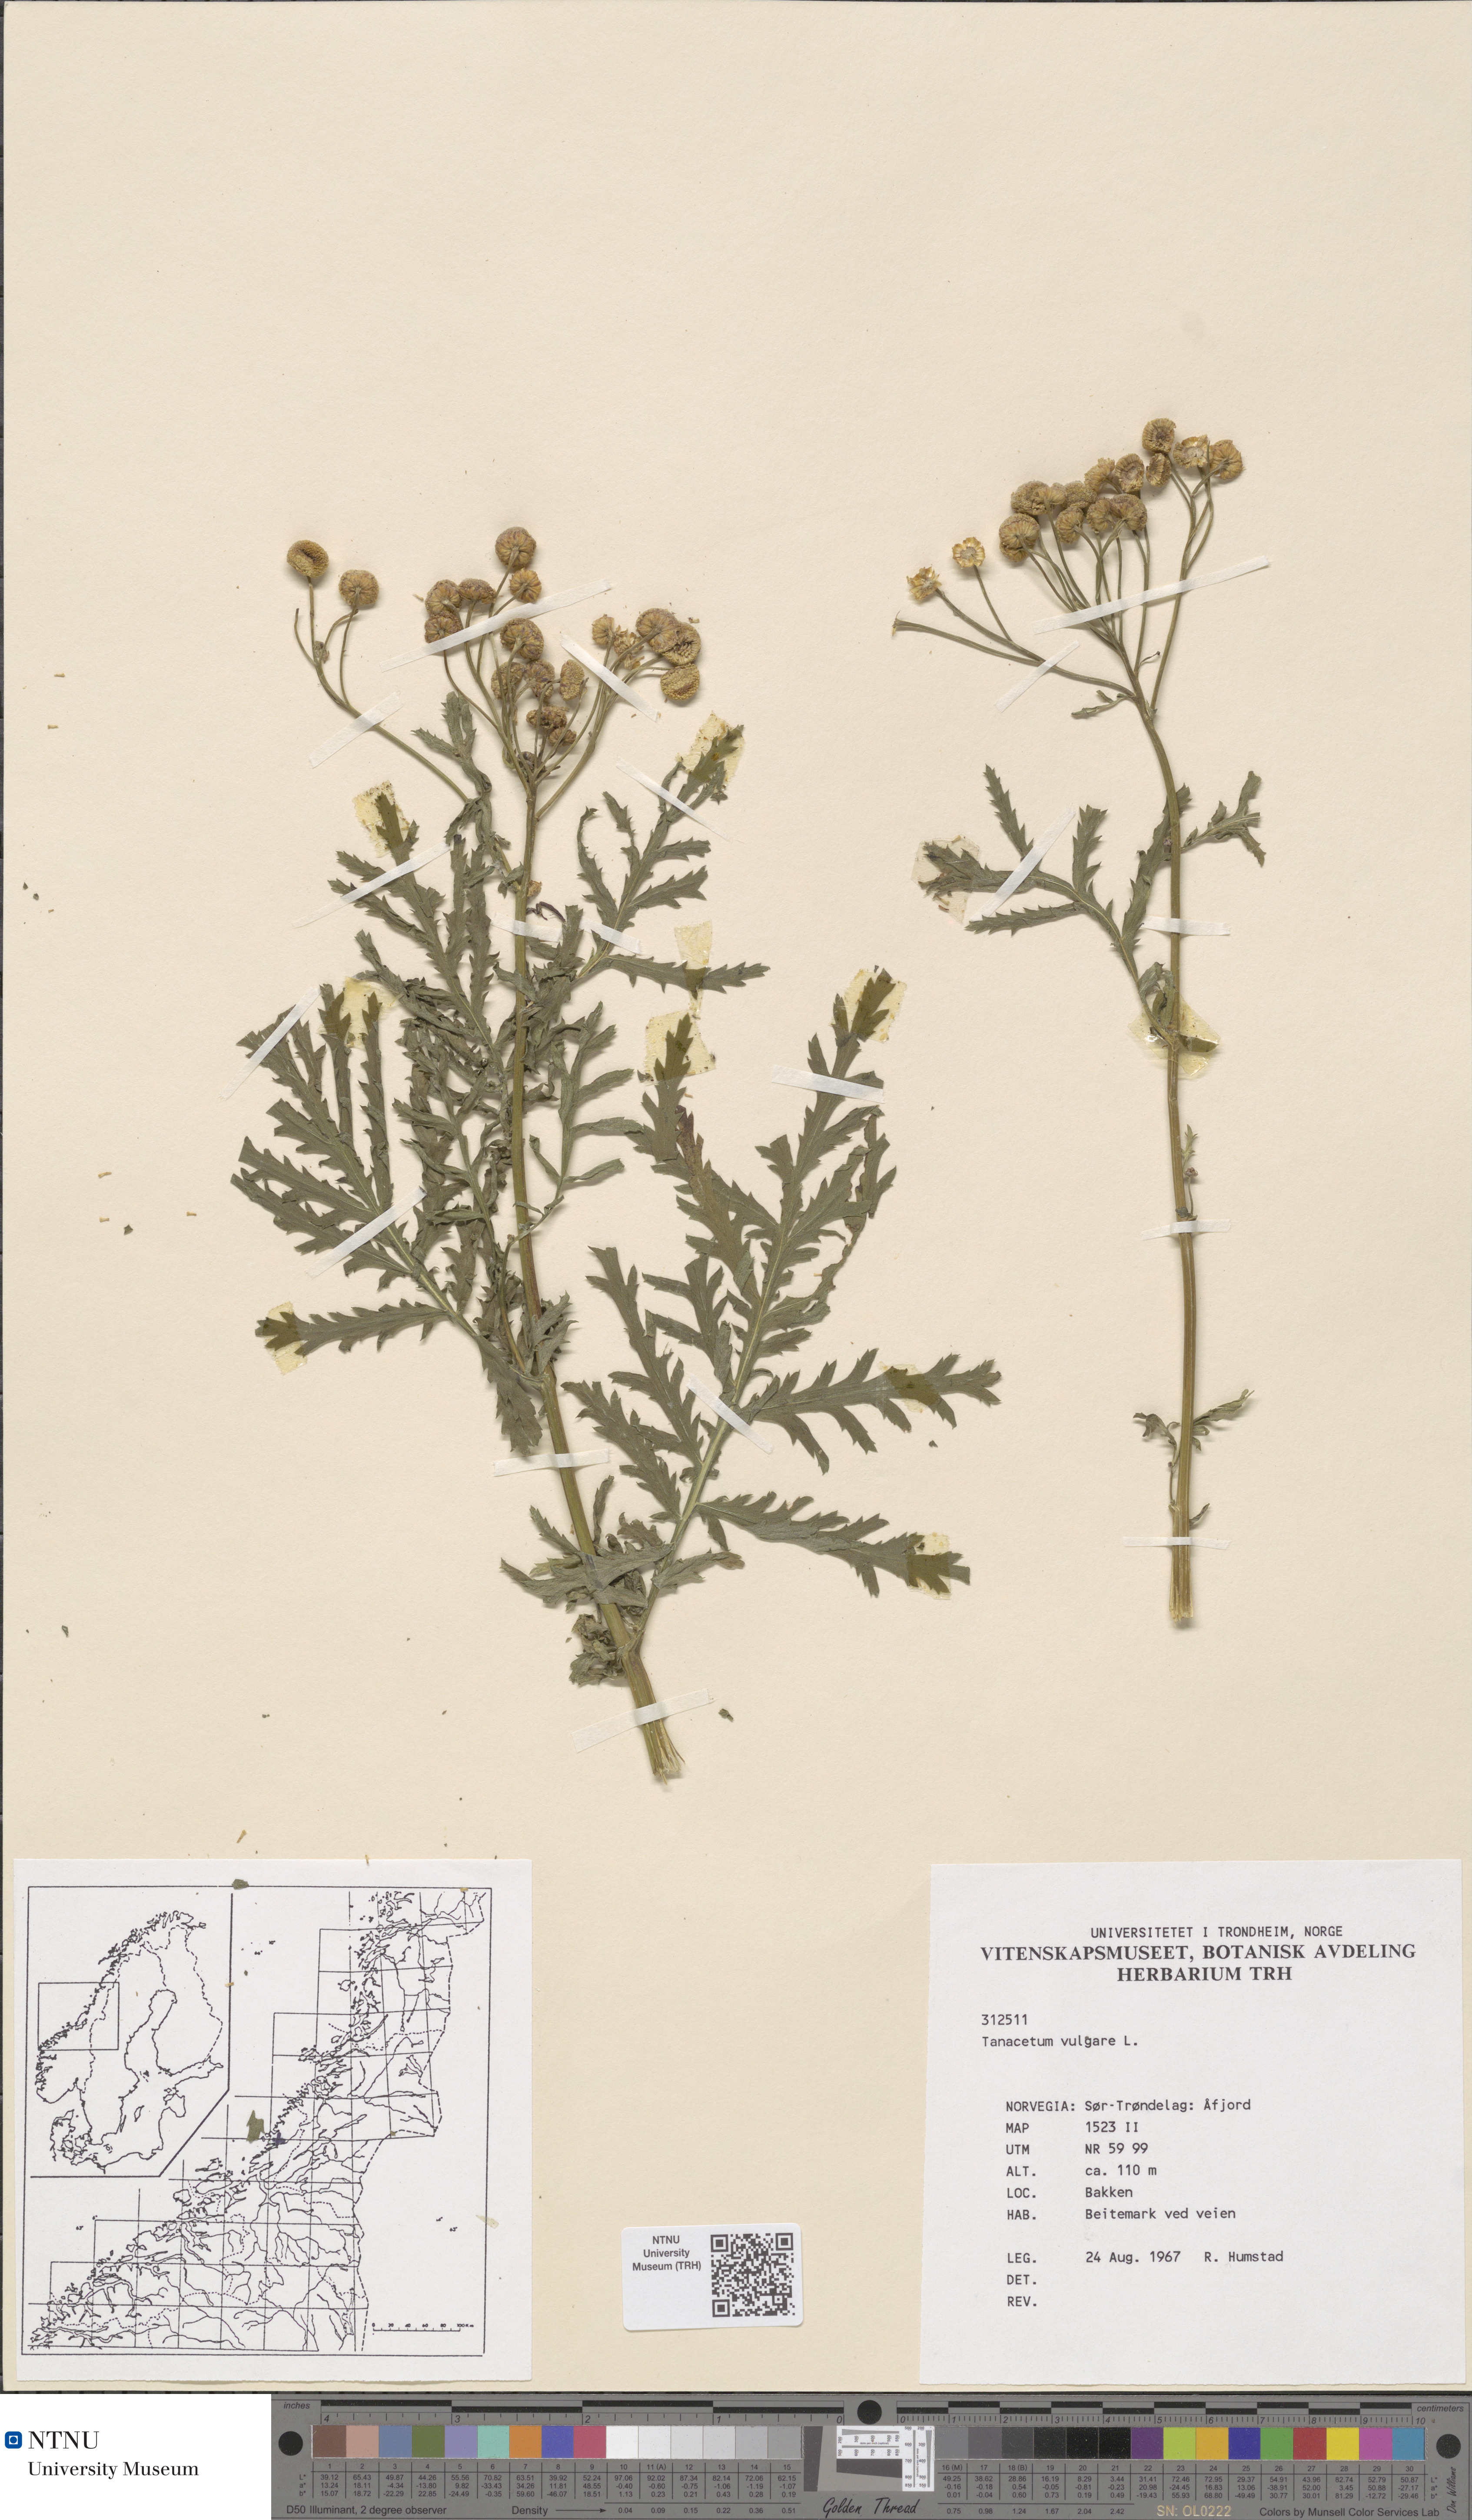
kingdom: Plantae
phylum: Tracheophyta
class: Magnoliopsida
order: Asterales
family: Asteraceae
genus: Tanacetum
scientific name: Tanacetum vulgare
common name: Common tansy
